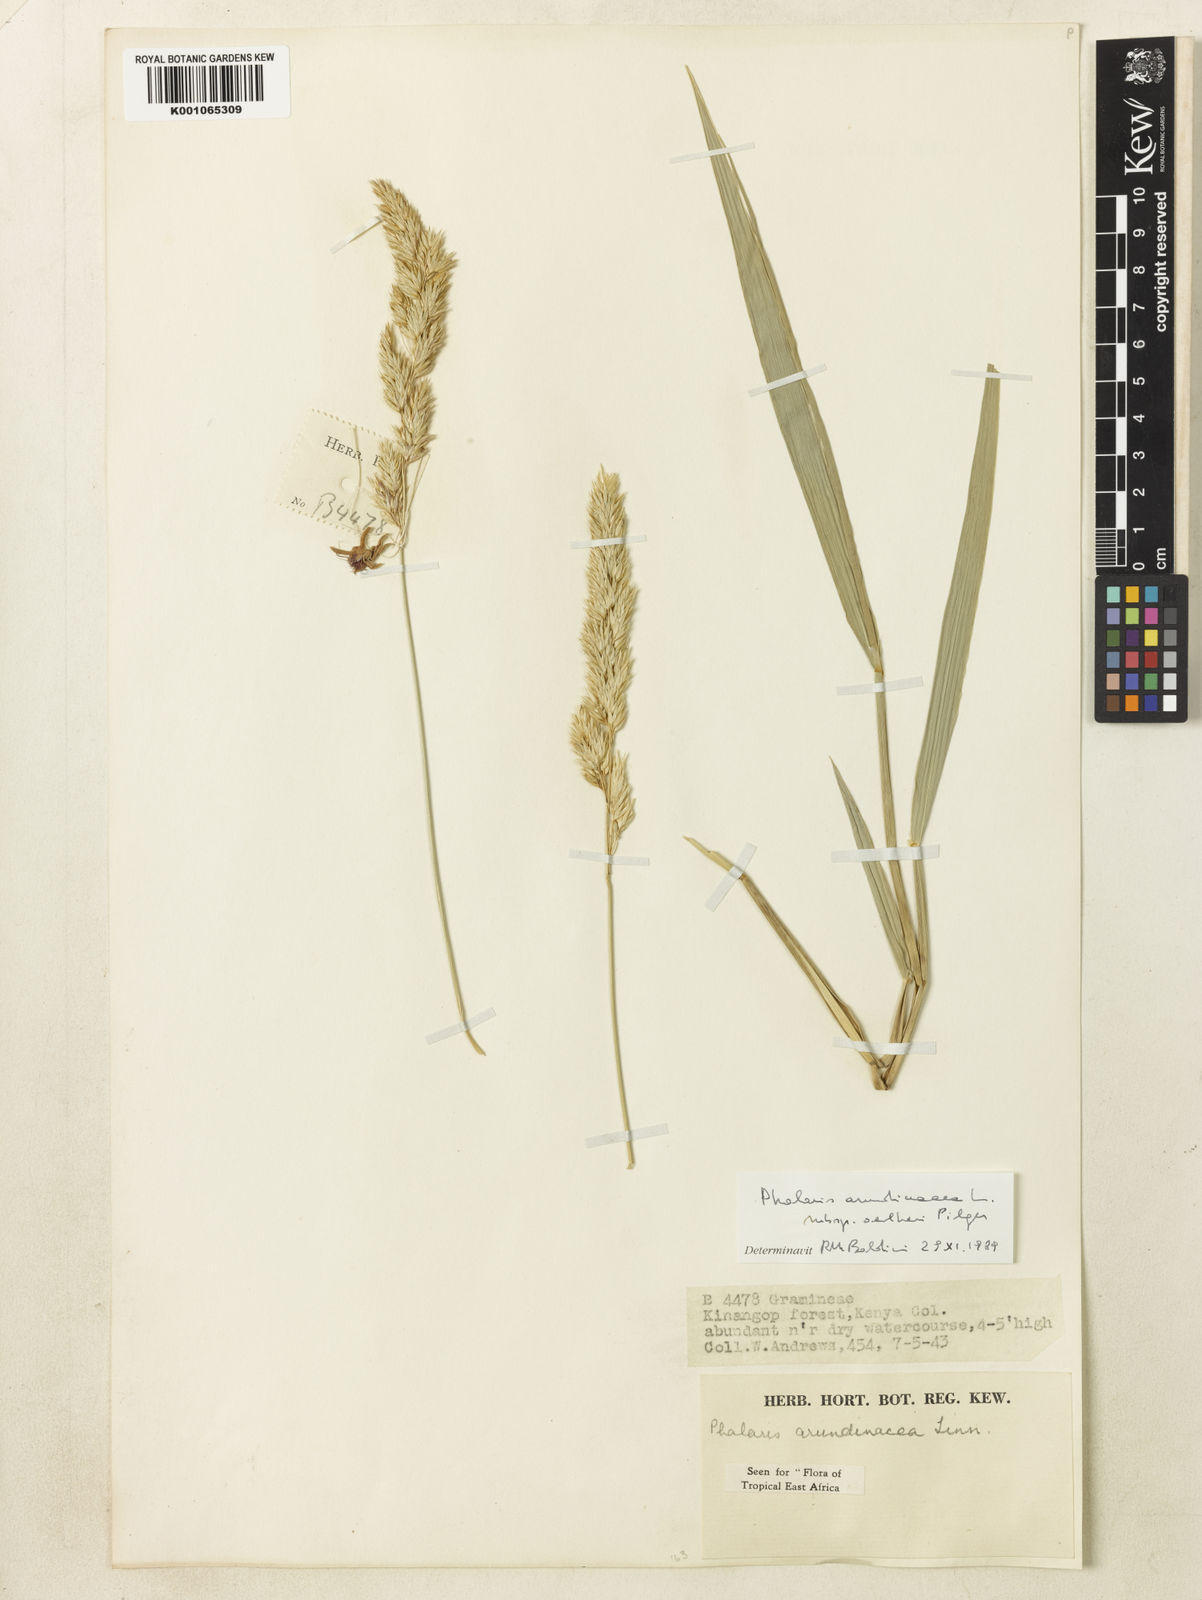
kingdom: Plantae
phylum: Tracheophyta
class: Liliopsida
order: Poales
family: Poaceae
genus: Phalaris
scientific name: Phalaris arundinacea
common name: Reed canary-grass
